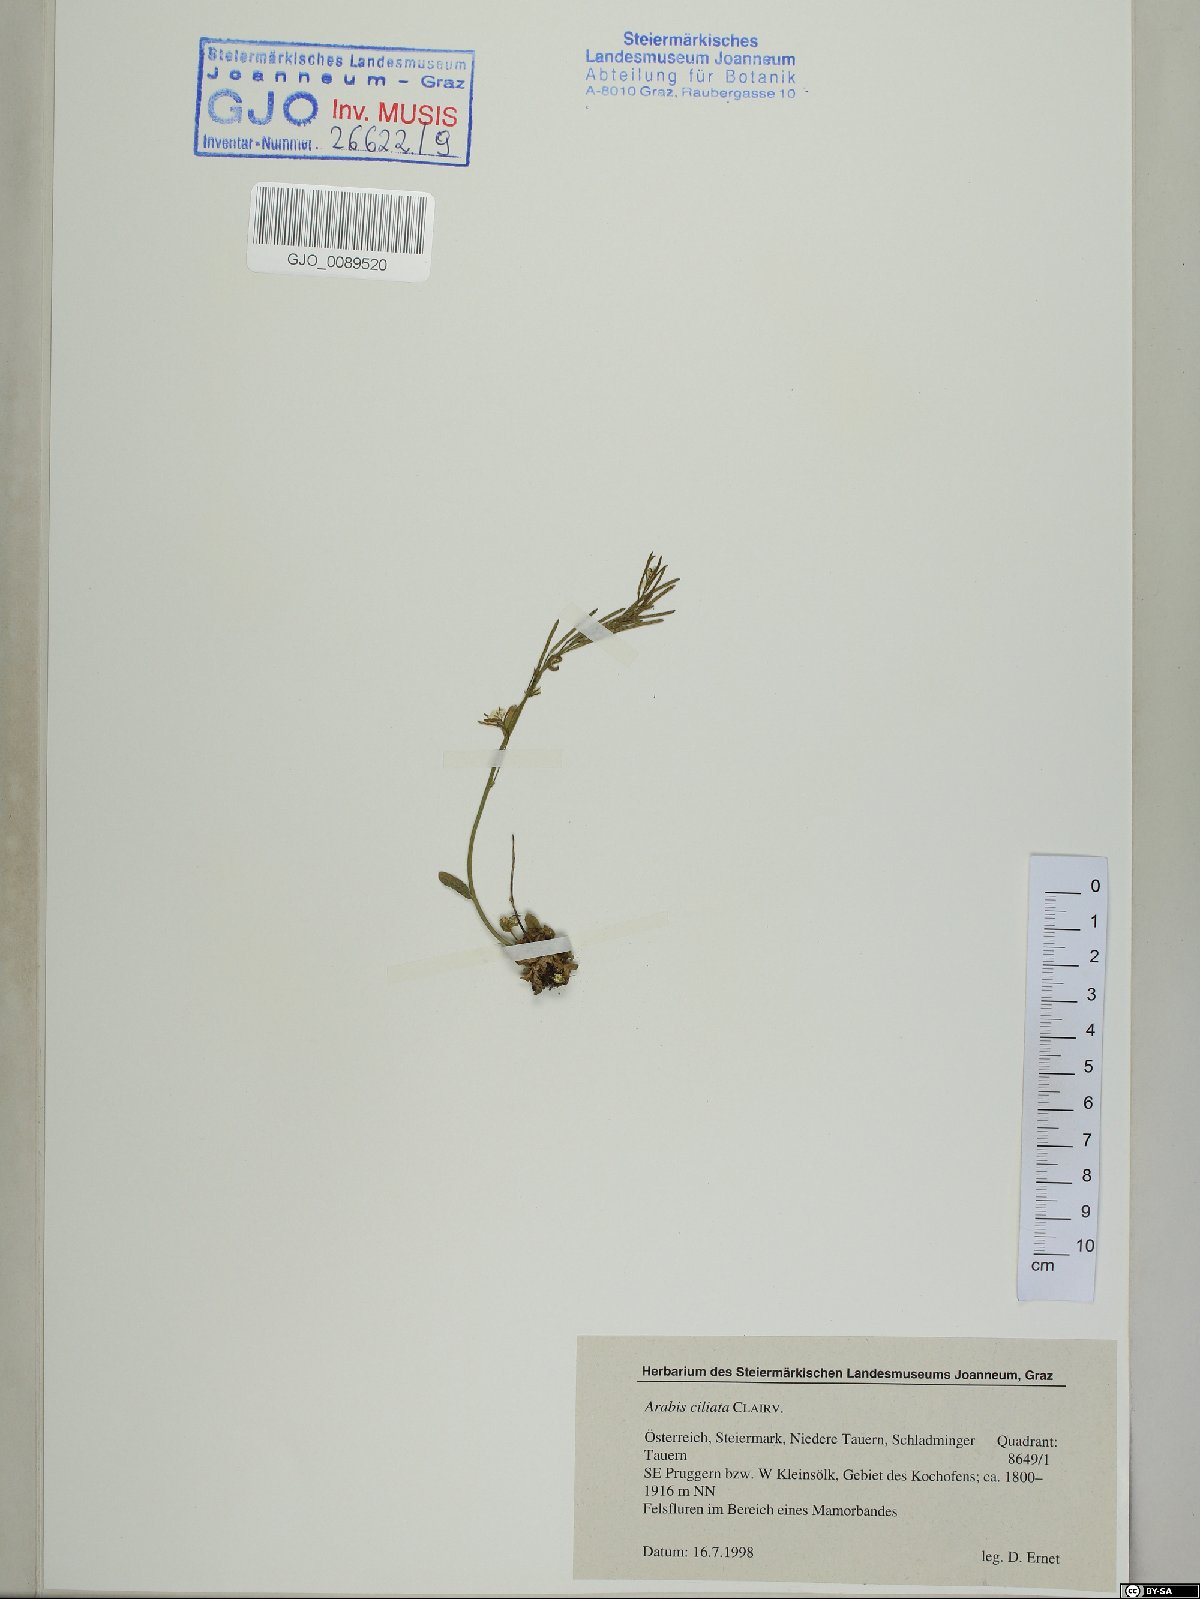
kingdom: Plantae
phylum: Tracheophyta
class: Magnoliopsida
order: Brassicales
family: Brassicaceae
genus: Arabis
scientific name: Arabis ciliata
